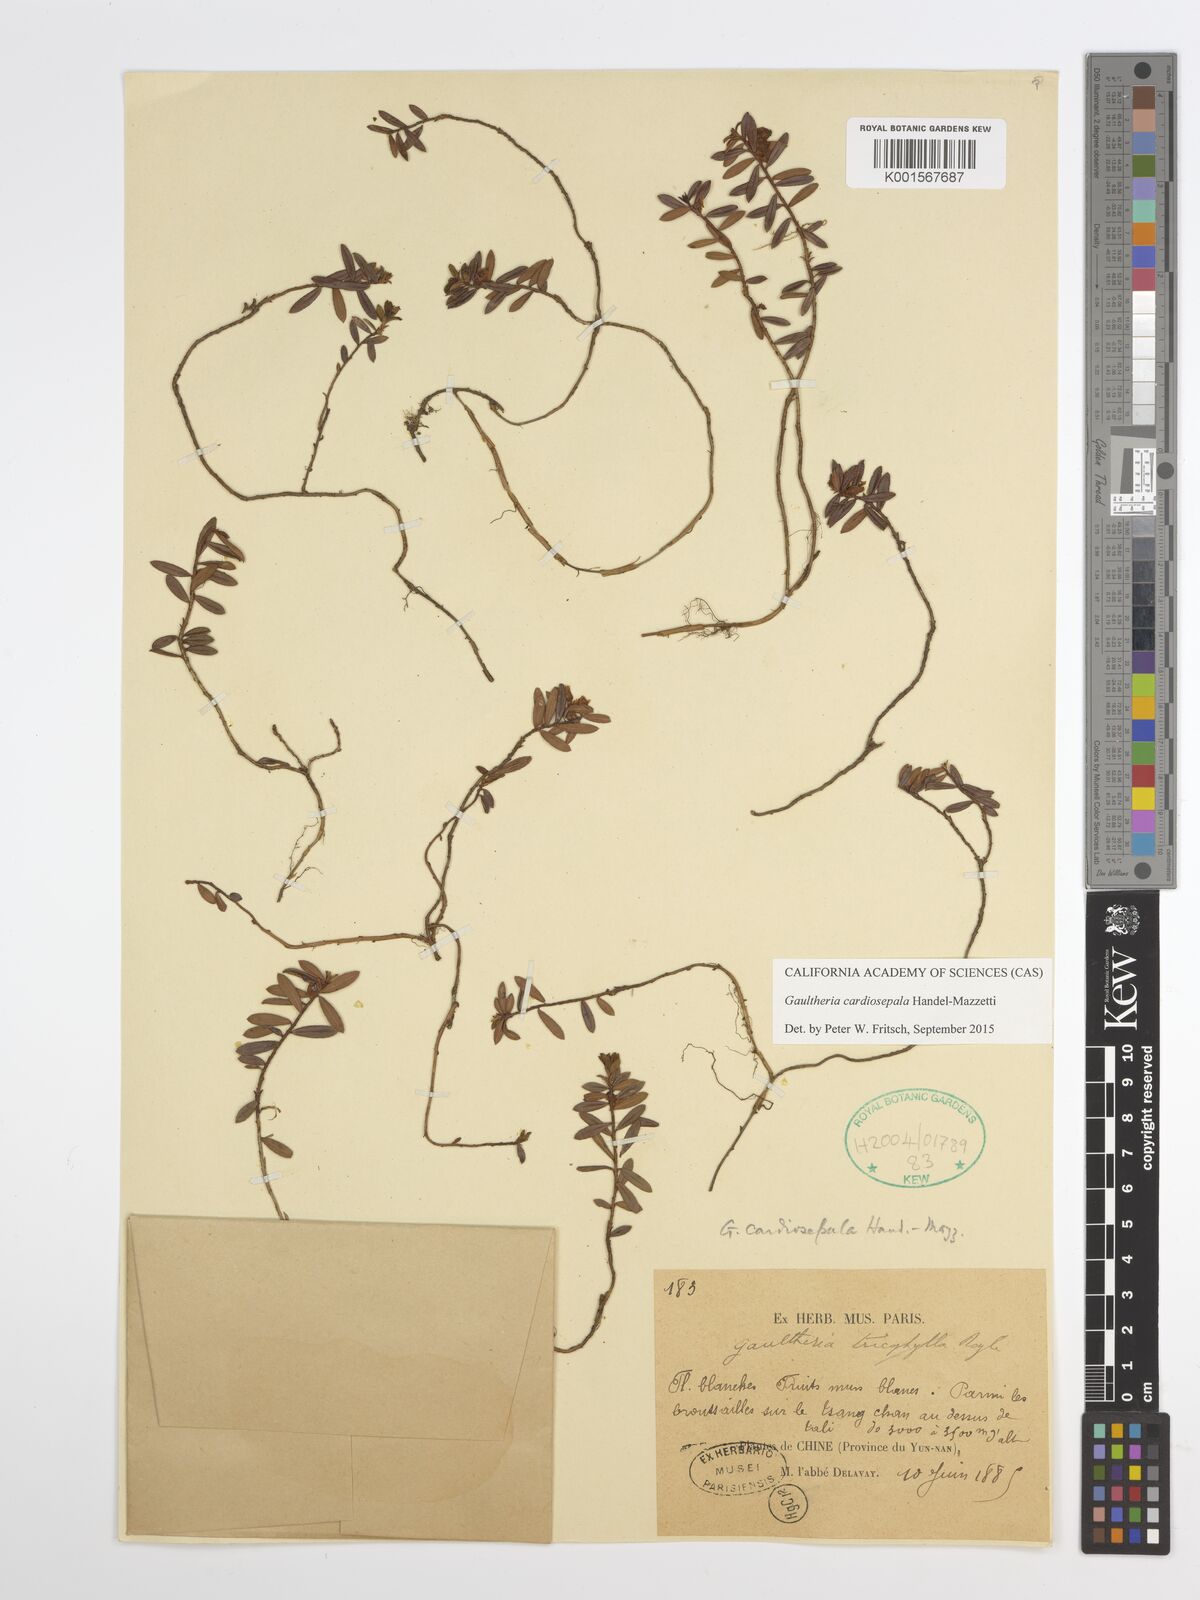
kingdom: Plantae
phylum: Tracheophyta
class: Magnoliopsida
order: Ericales
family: Ericaceae
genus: Gaultheria
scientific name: Gaultheria cardiosepala
